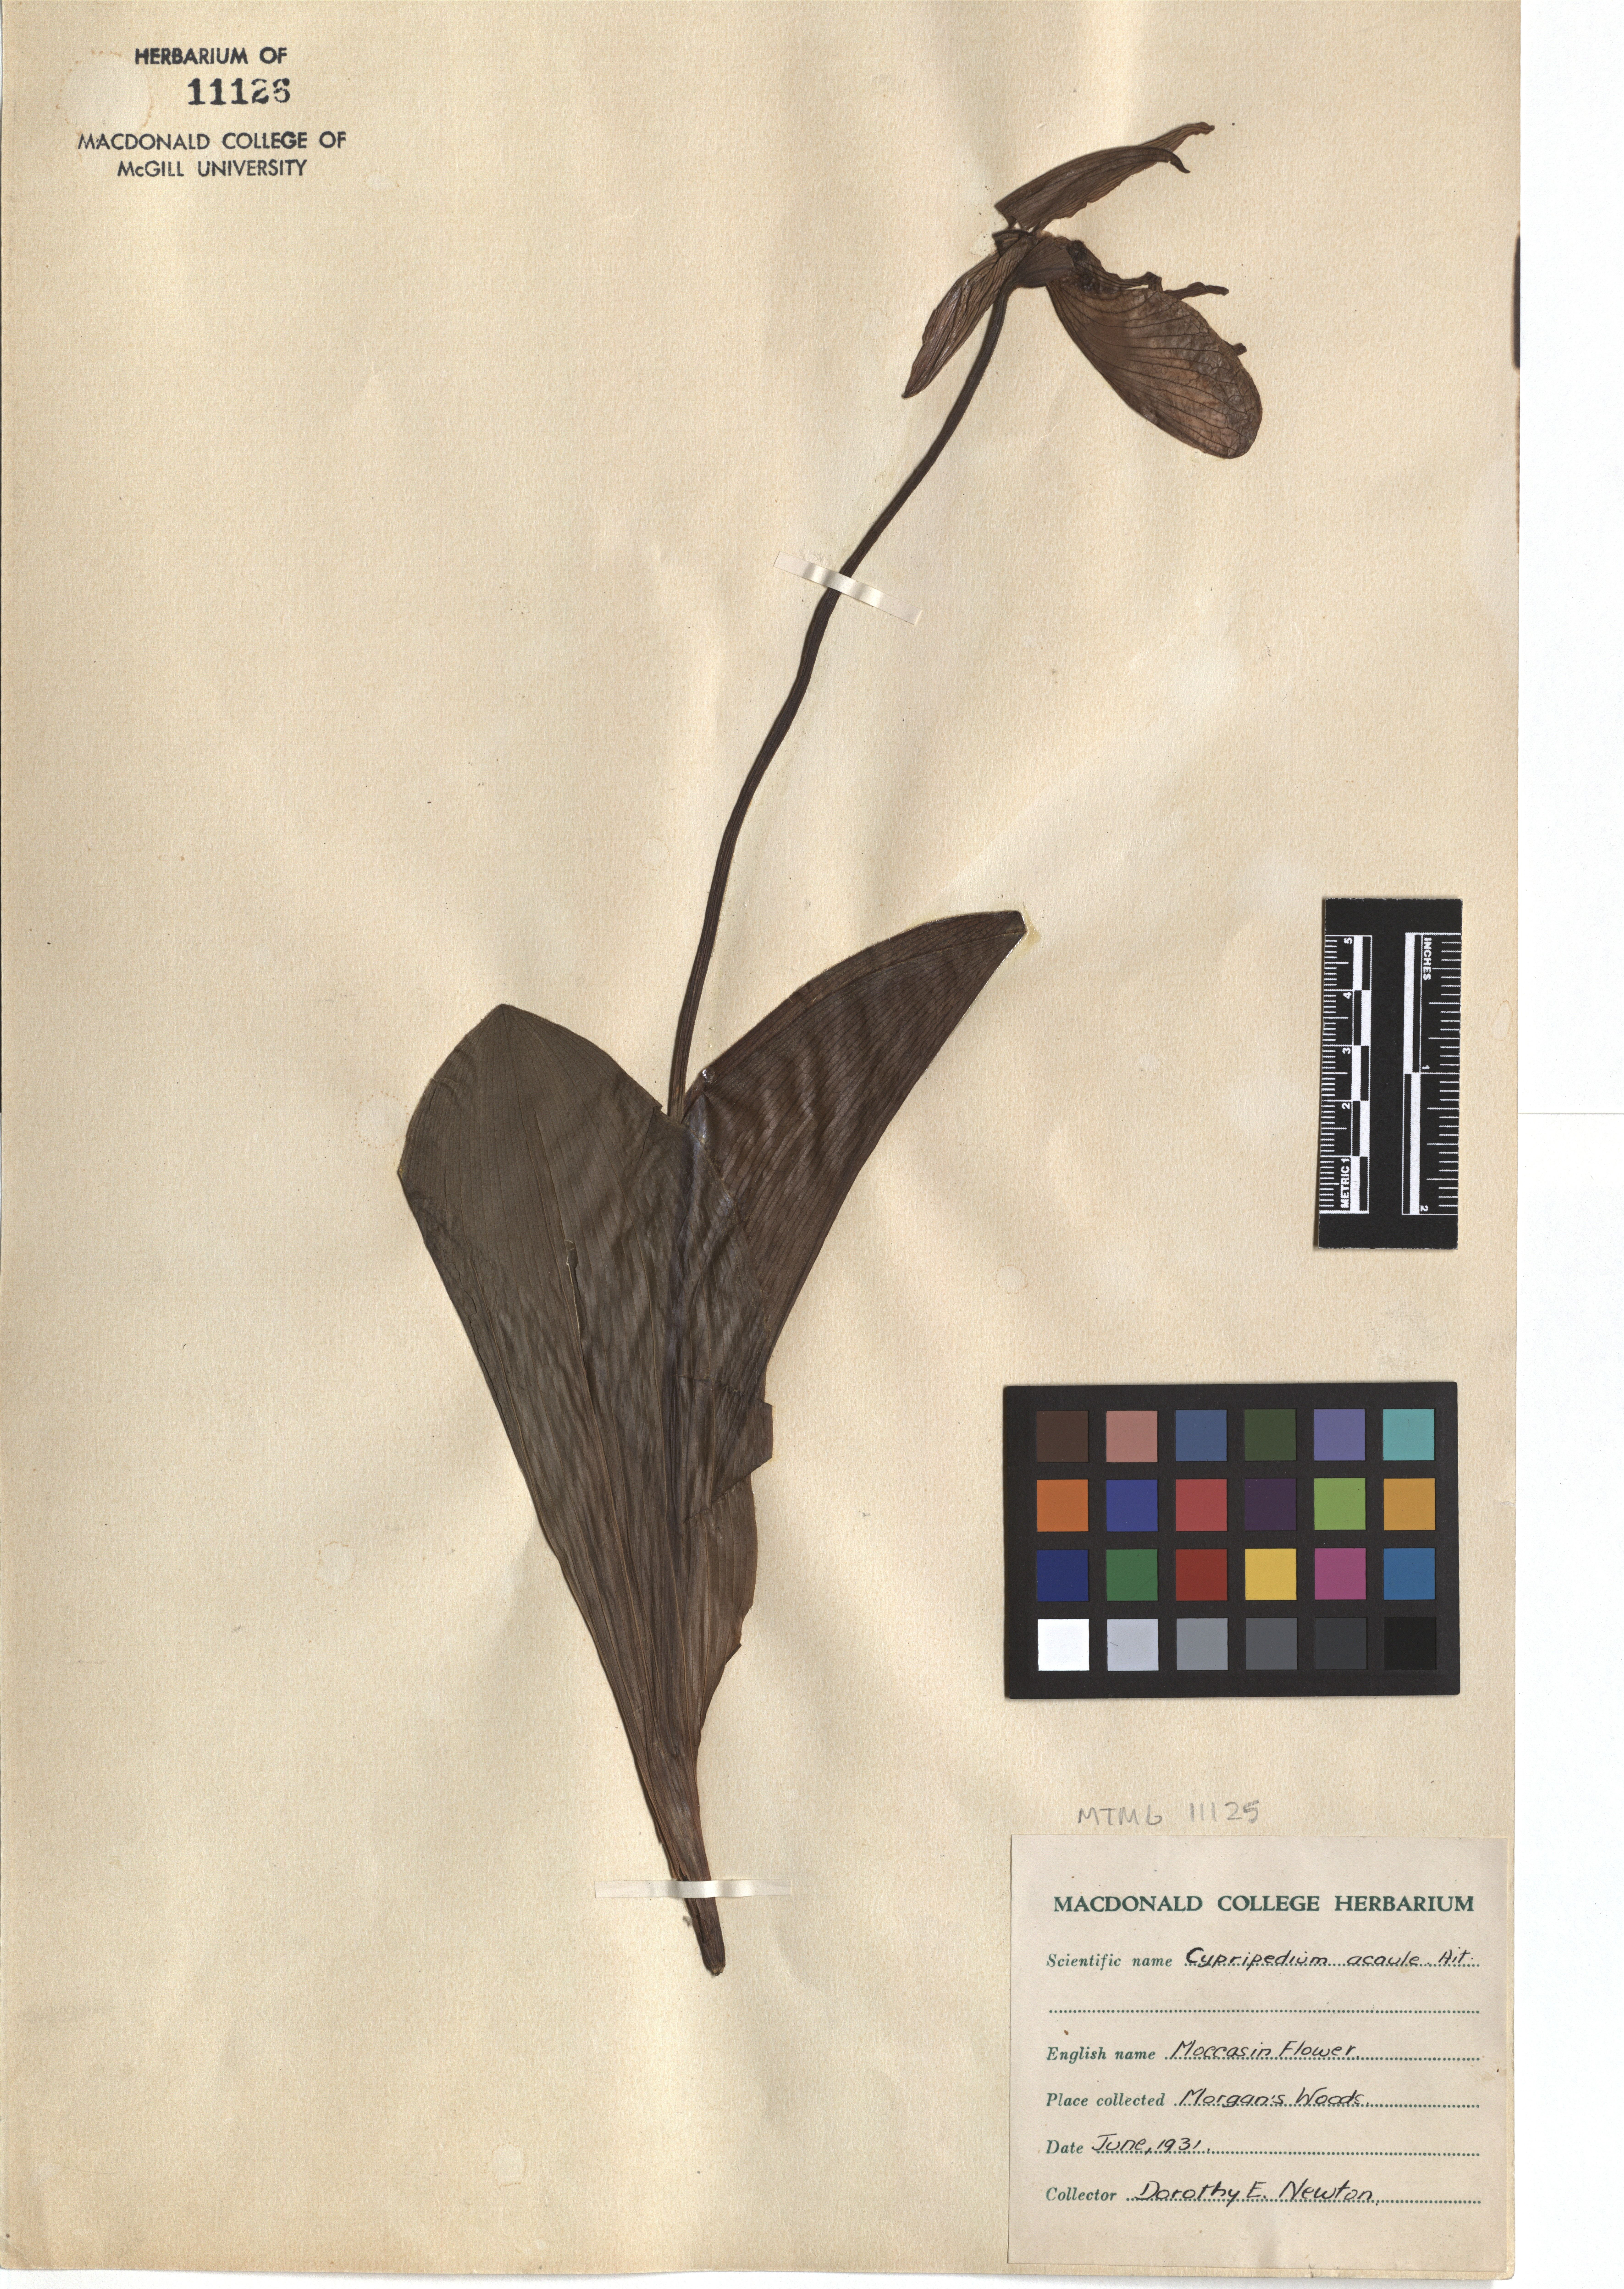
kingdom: Plantae
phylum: Tracheophyta
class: Liliopsida
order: Asparagales
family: Orchidaceae
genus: Cypripedium
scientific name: Cypripedium acaule
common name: Pink lady's-slipper
